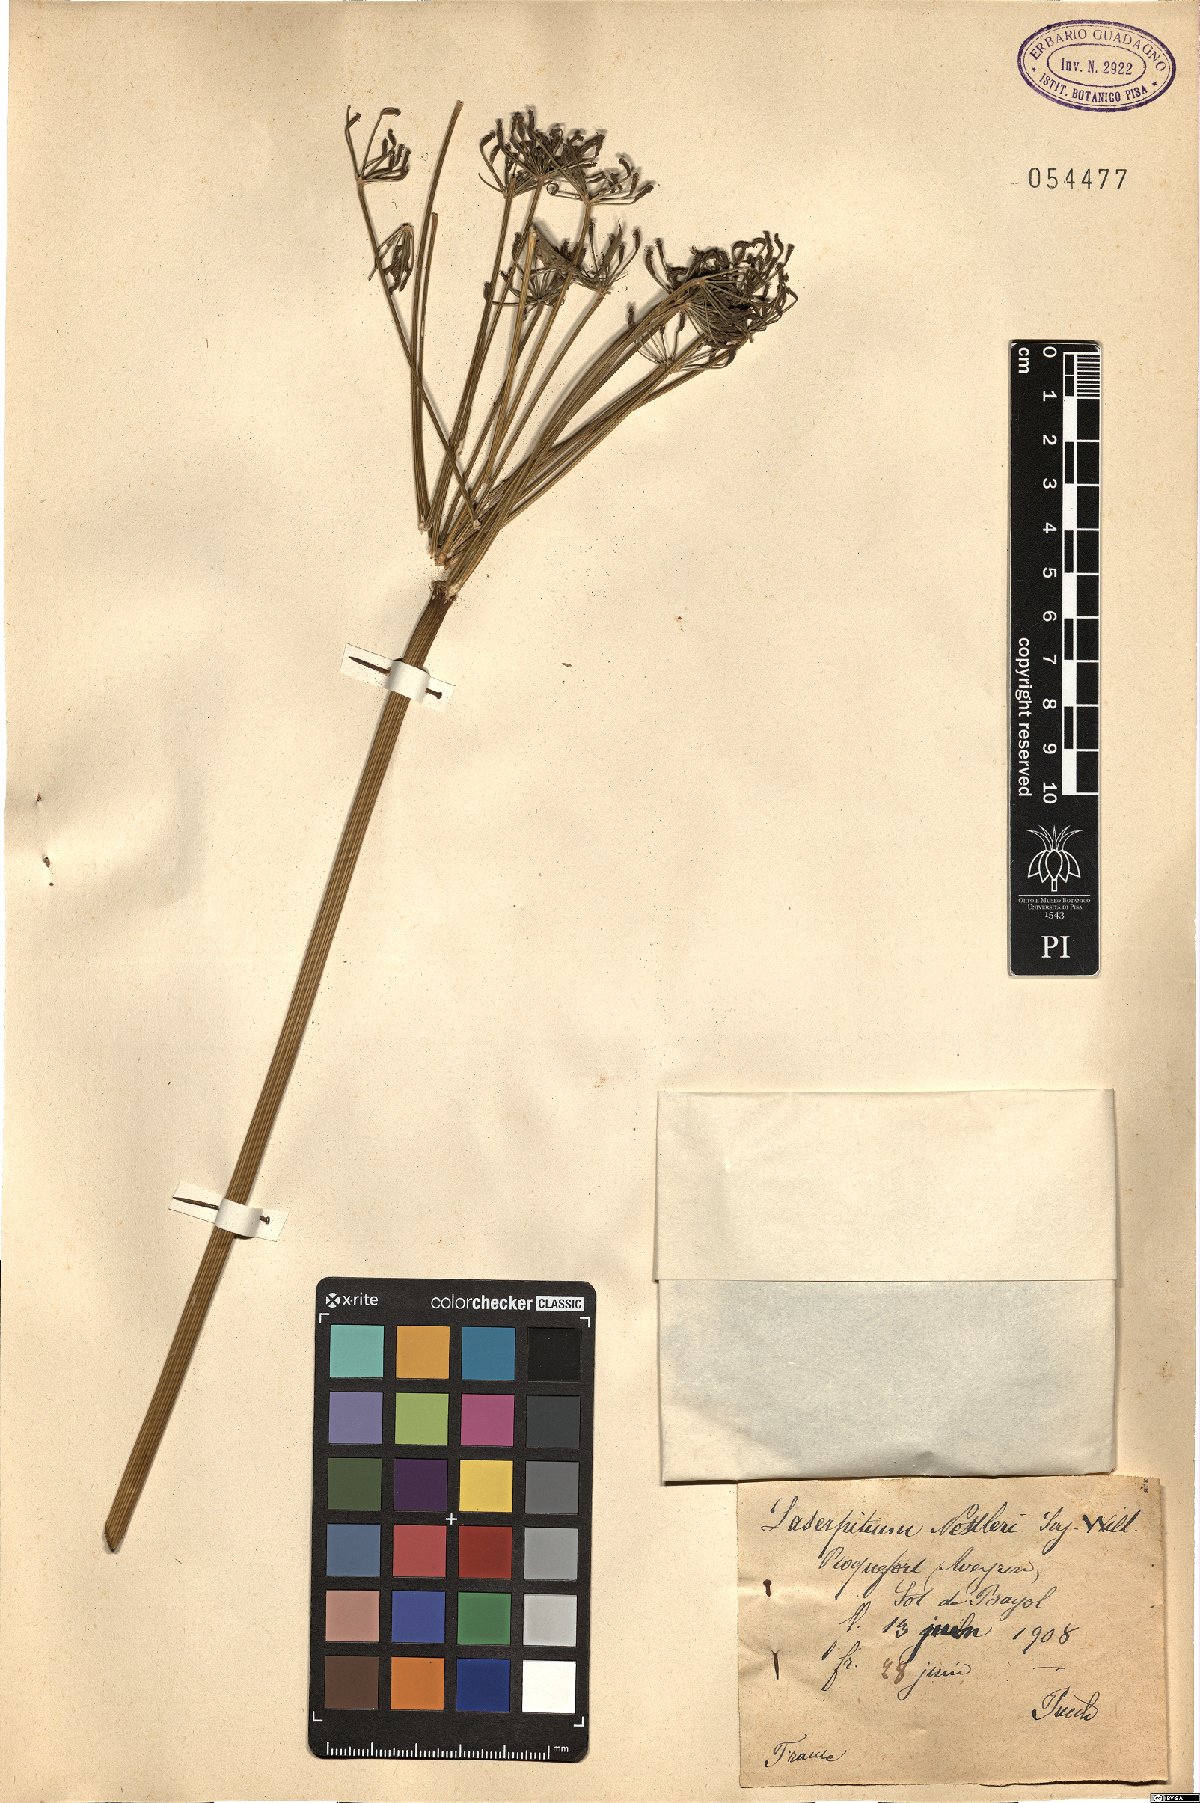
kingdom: Plantae
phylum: Tracheophyta
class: Magnoliopsida
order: Apiales
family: Apiaceae
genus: Thapsia
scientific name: Thapsia nestleri
